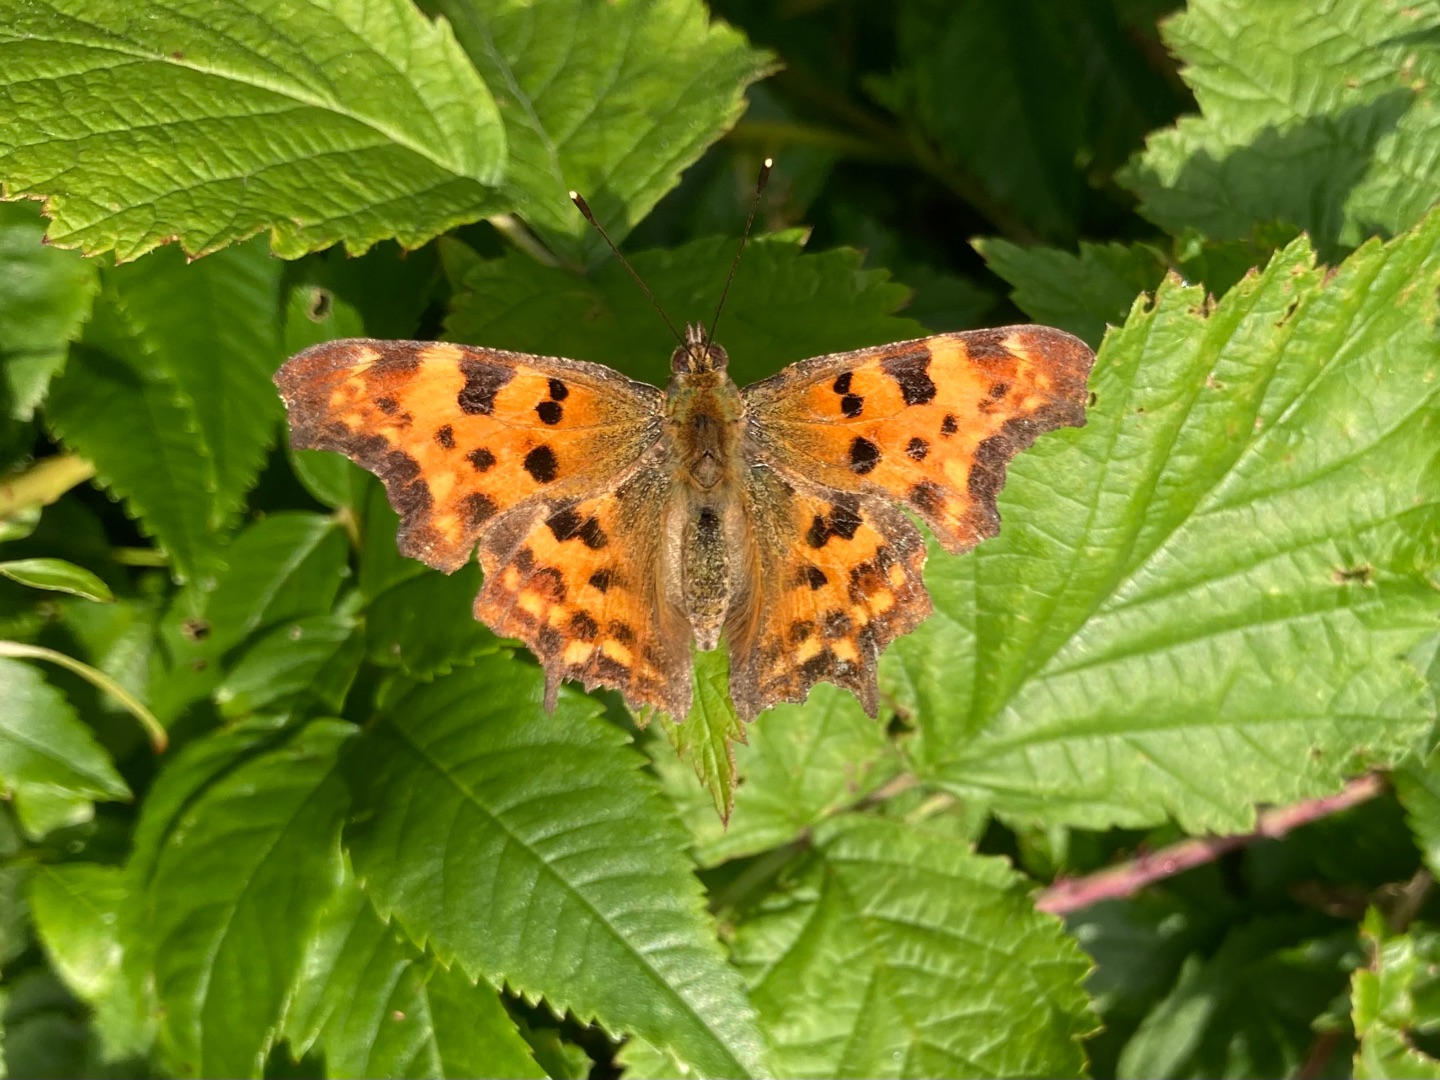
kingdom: Animalia
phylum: Arthropoda
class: Insecta
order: Lepidoptera
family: Nymphalidae
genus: Polygonia
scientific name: Polygonia c-album
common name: Det hvide C
